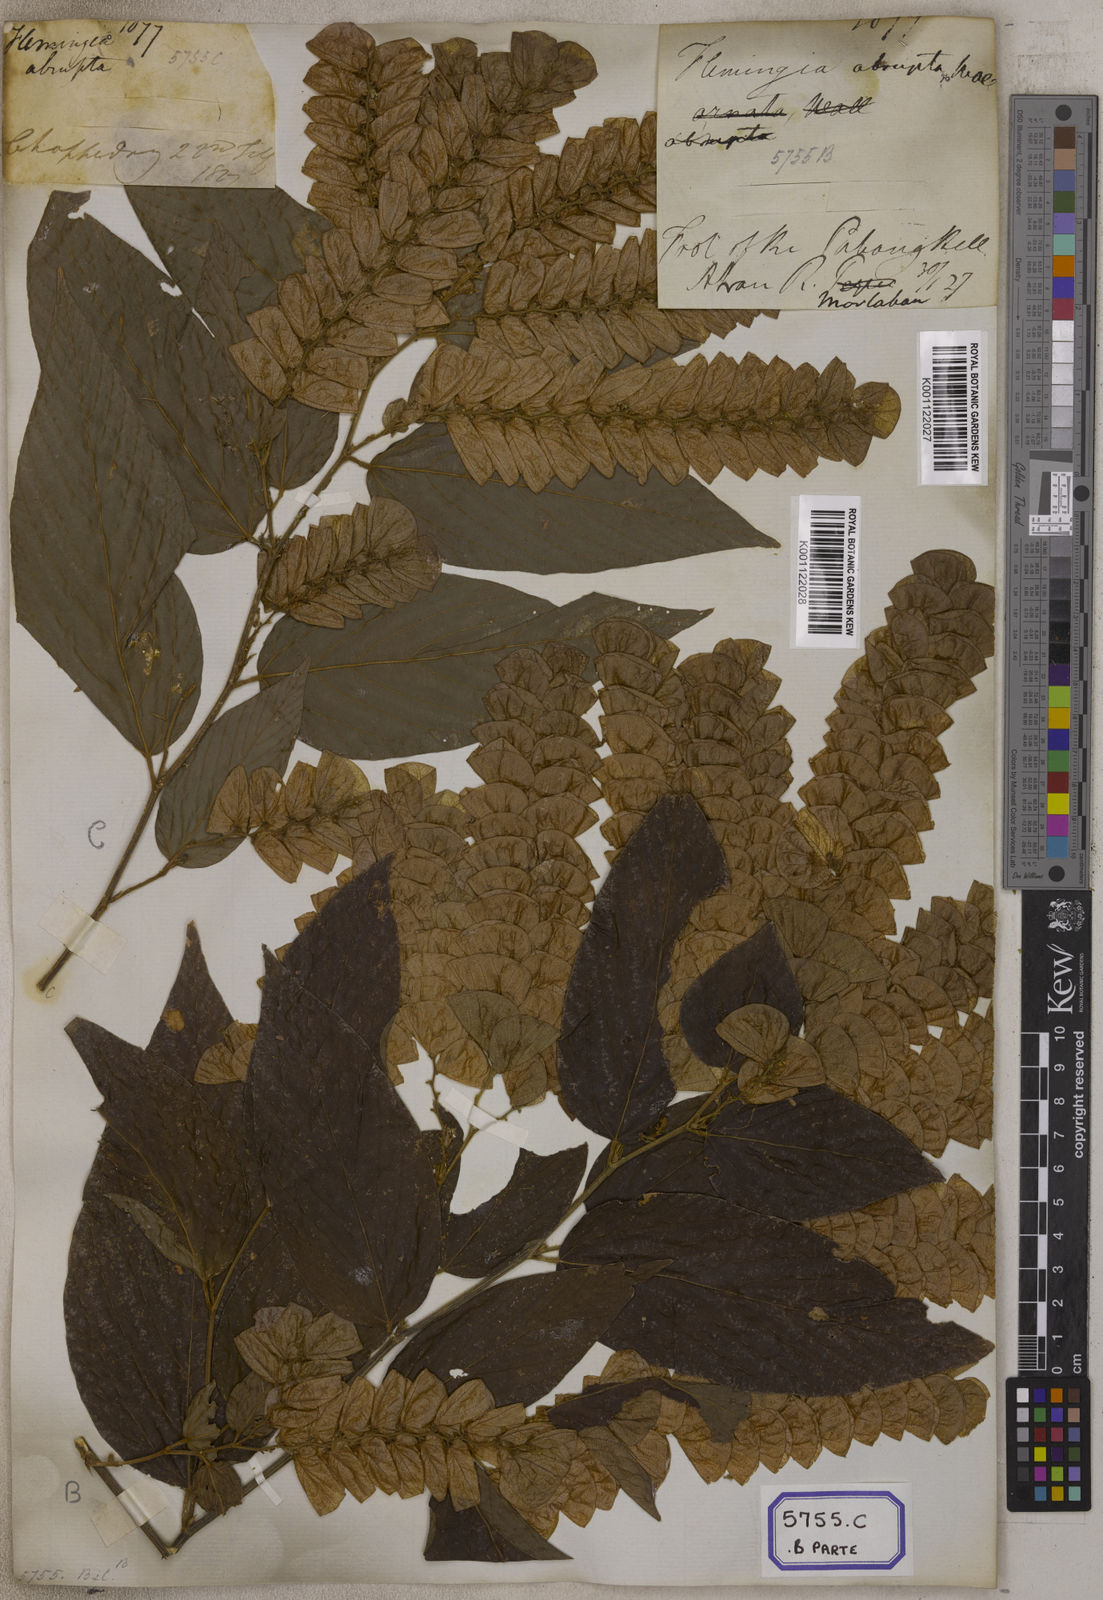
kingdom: Plantae
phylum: Tracheophyta
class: Magnoliopsida
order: Fabales
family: Fabaceae
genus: Flemingia
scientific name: Flemingia
